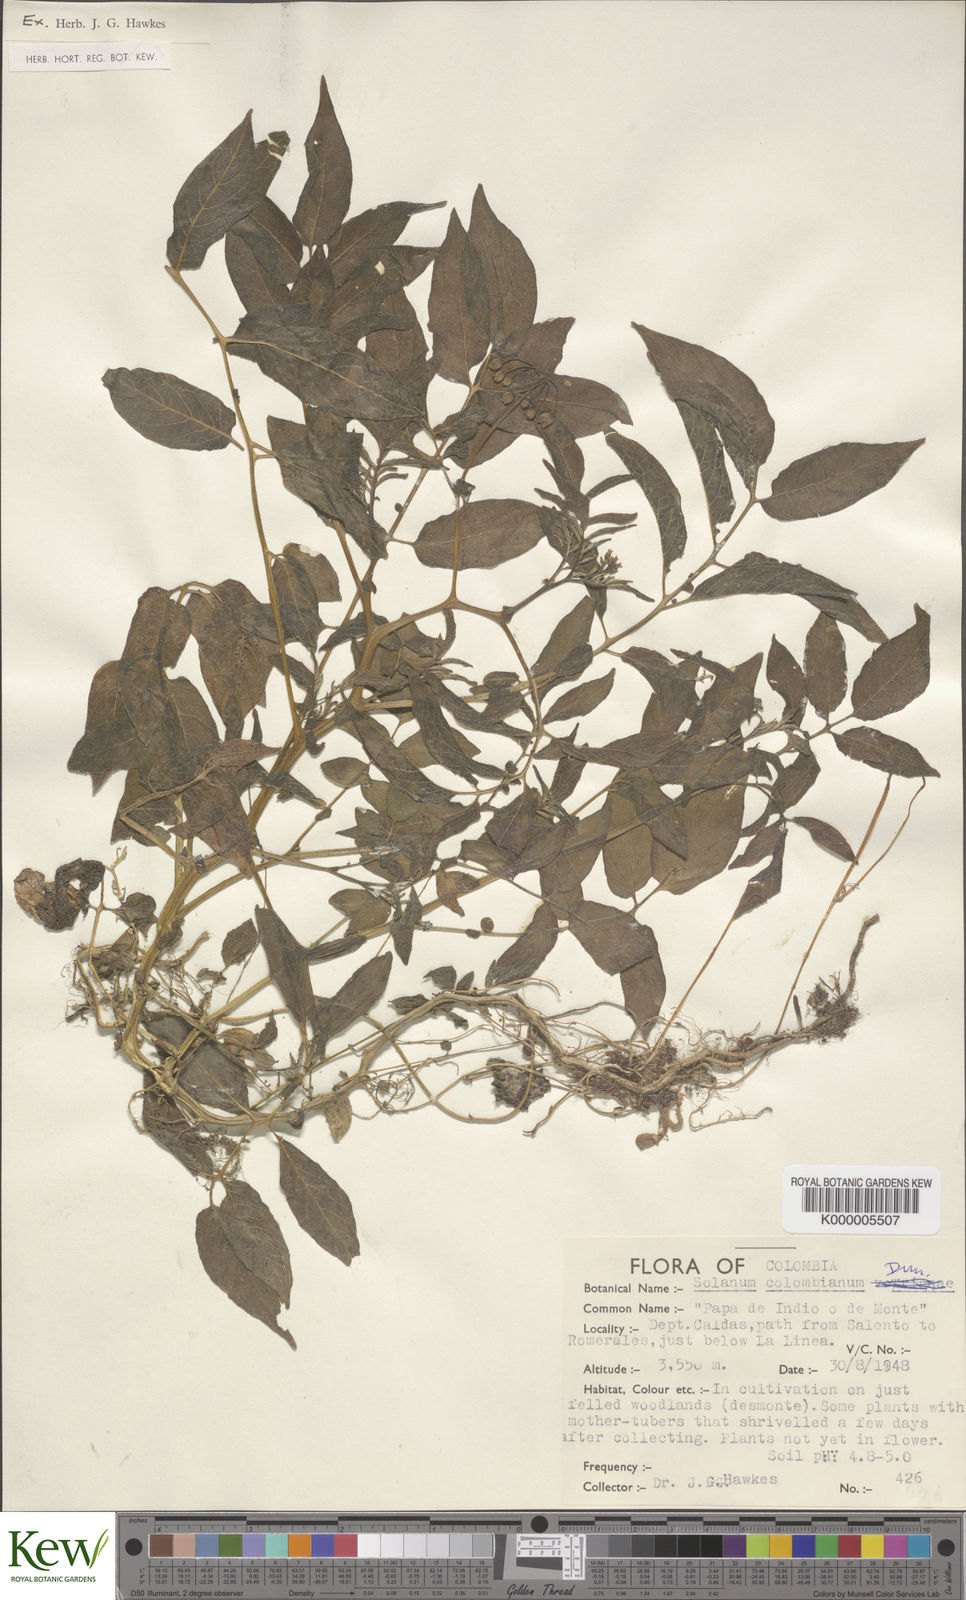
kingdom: Plantae
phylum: Tracheophyta
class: Magnoliopsida
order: Solanales
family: Solanaceae
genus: Solanum
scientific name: Solanum colombianum
